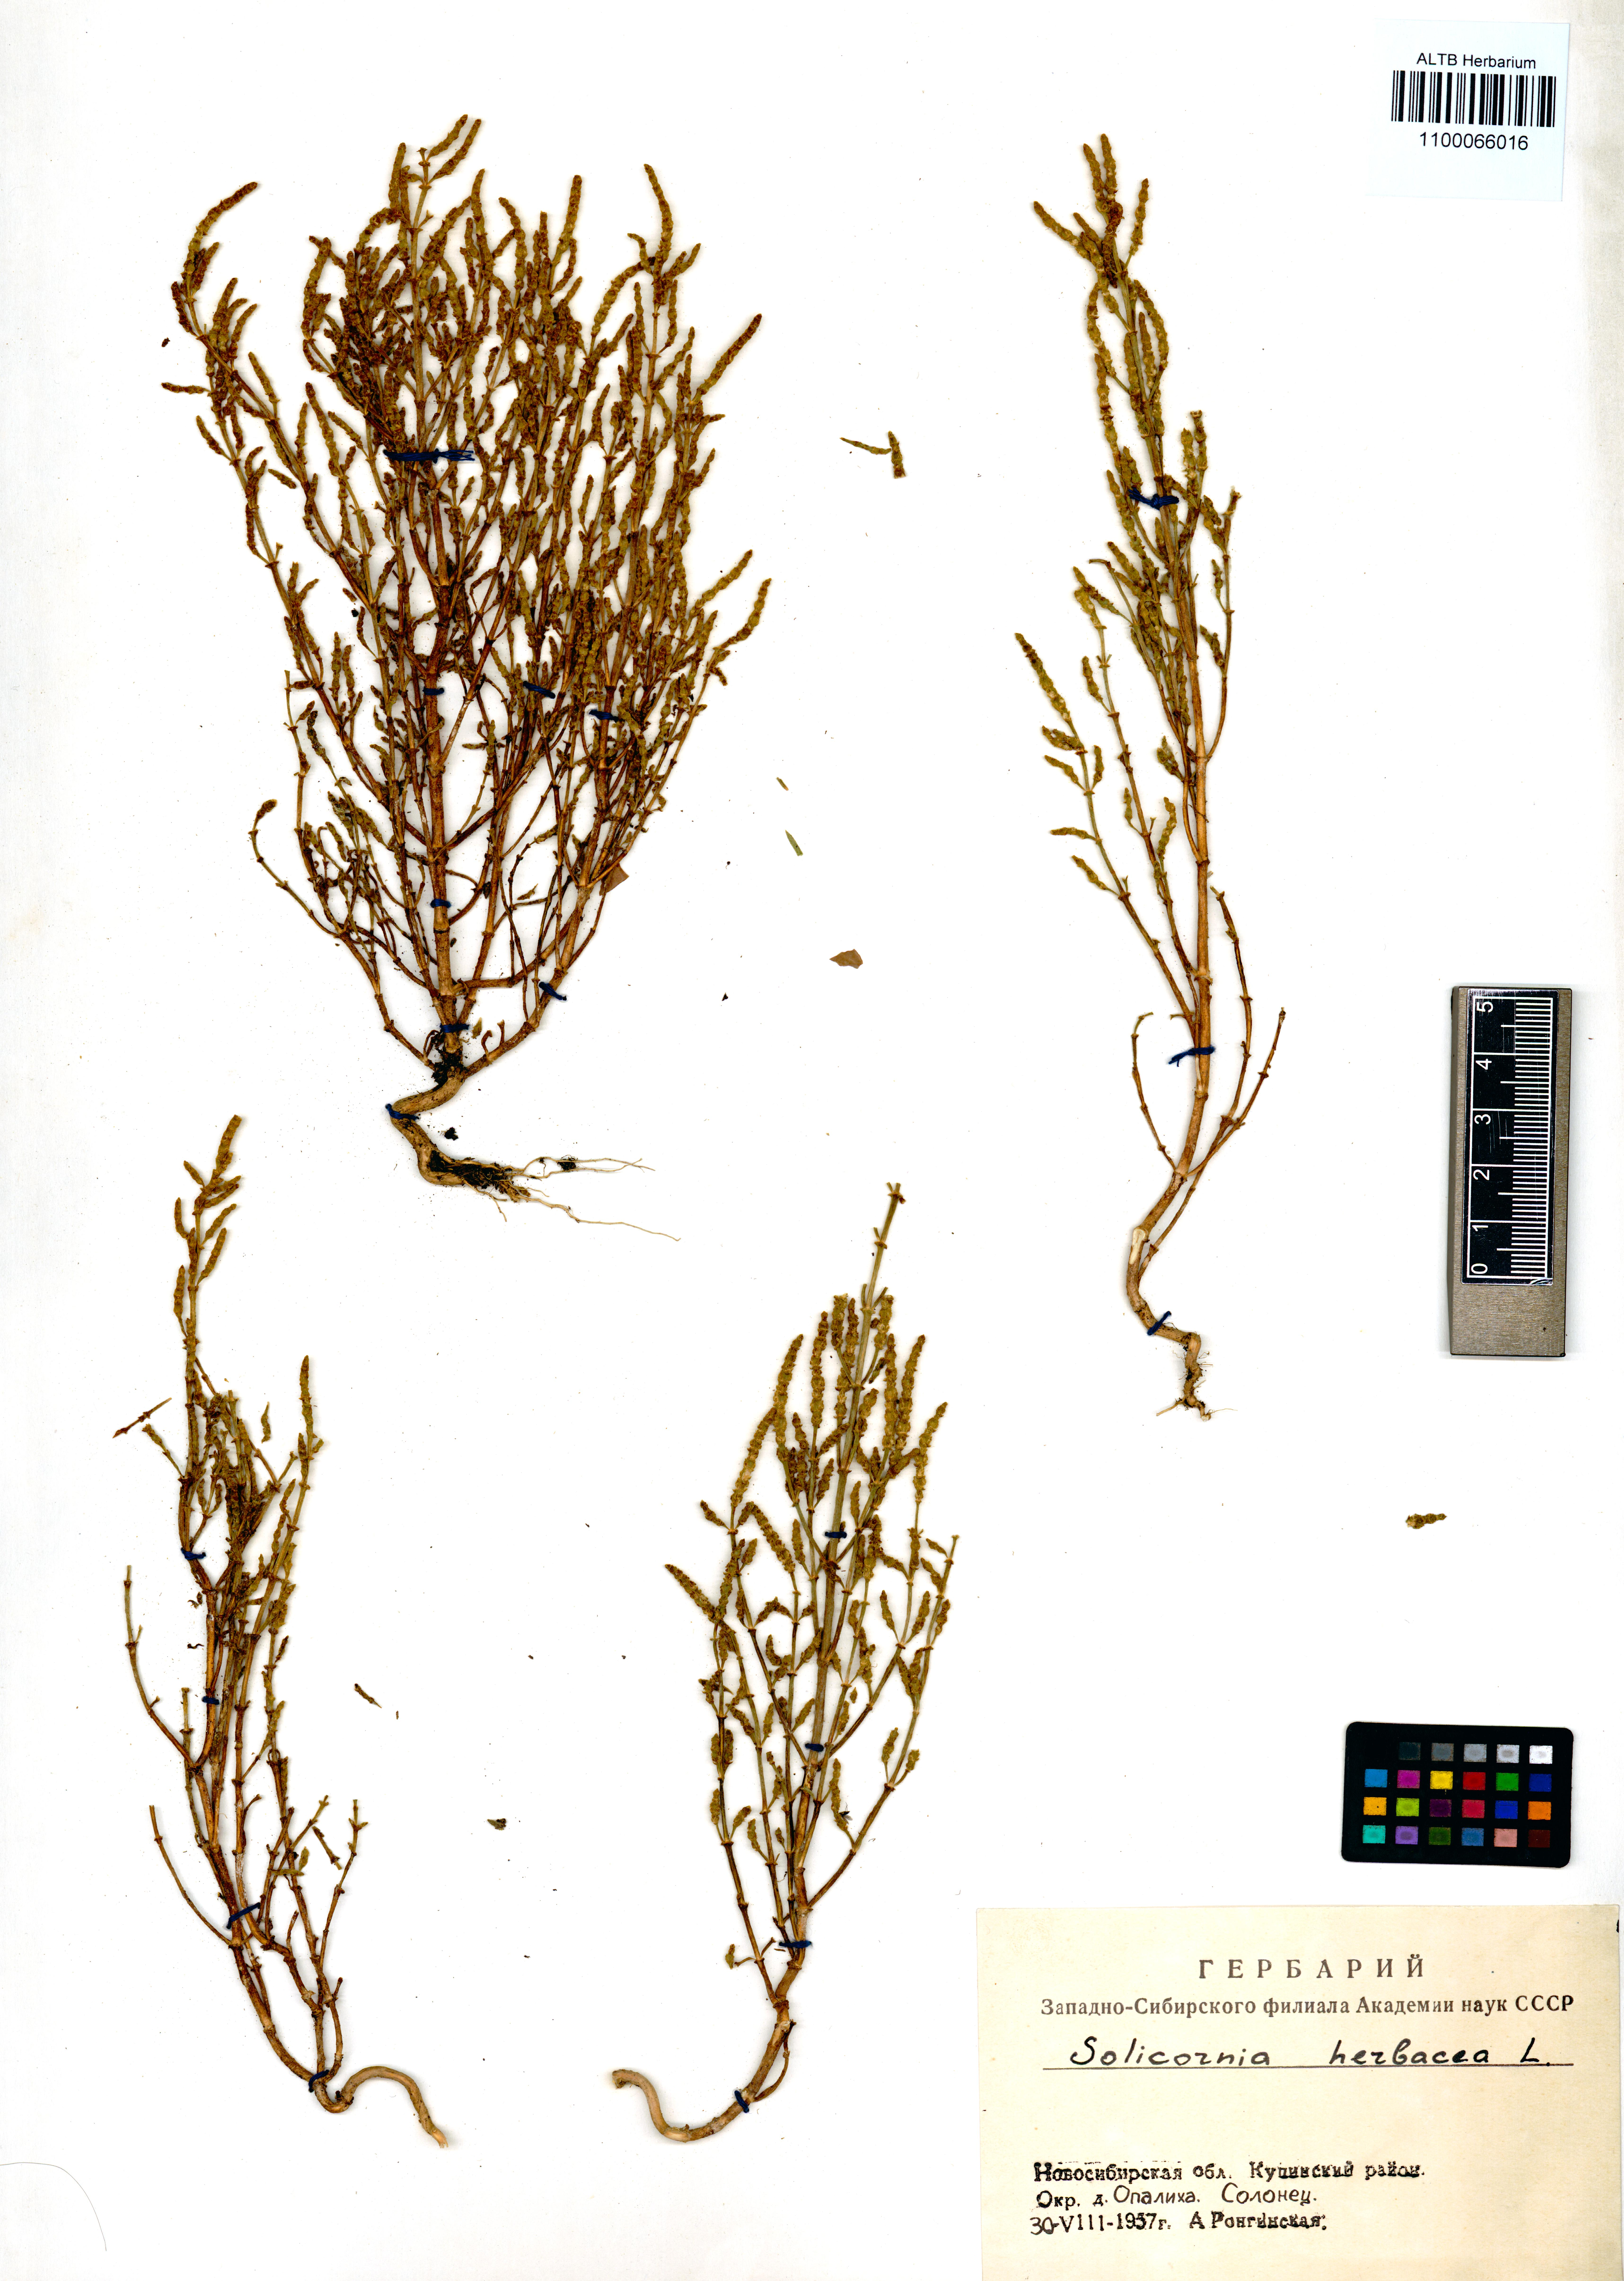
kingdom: Plantae
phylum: Tracheophyta
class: Magnoliopsida
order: Caryophyllales
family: Amaranthaceae
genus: Salicornia
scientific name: Salicornia europaea
